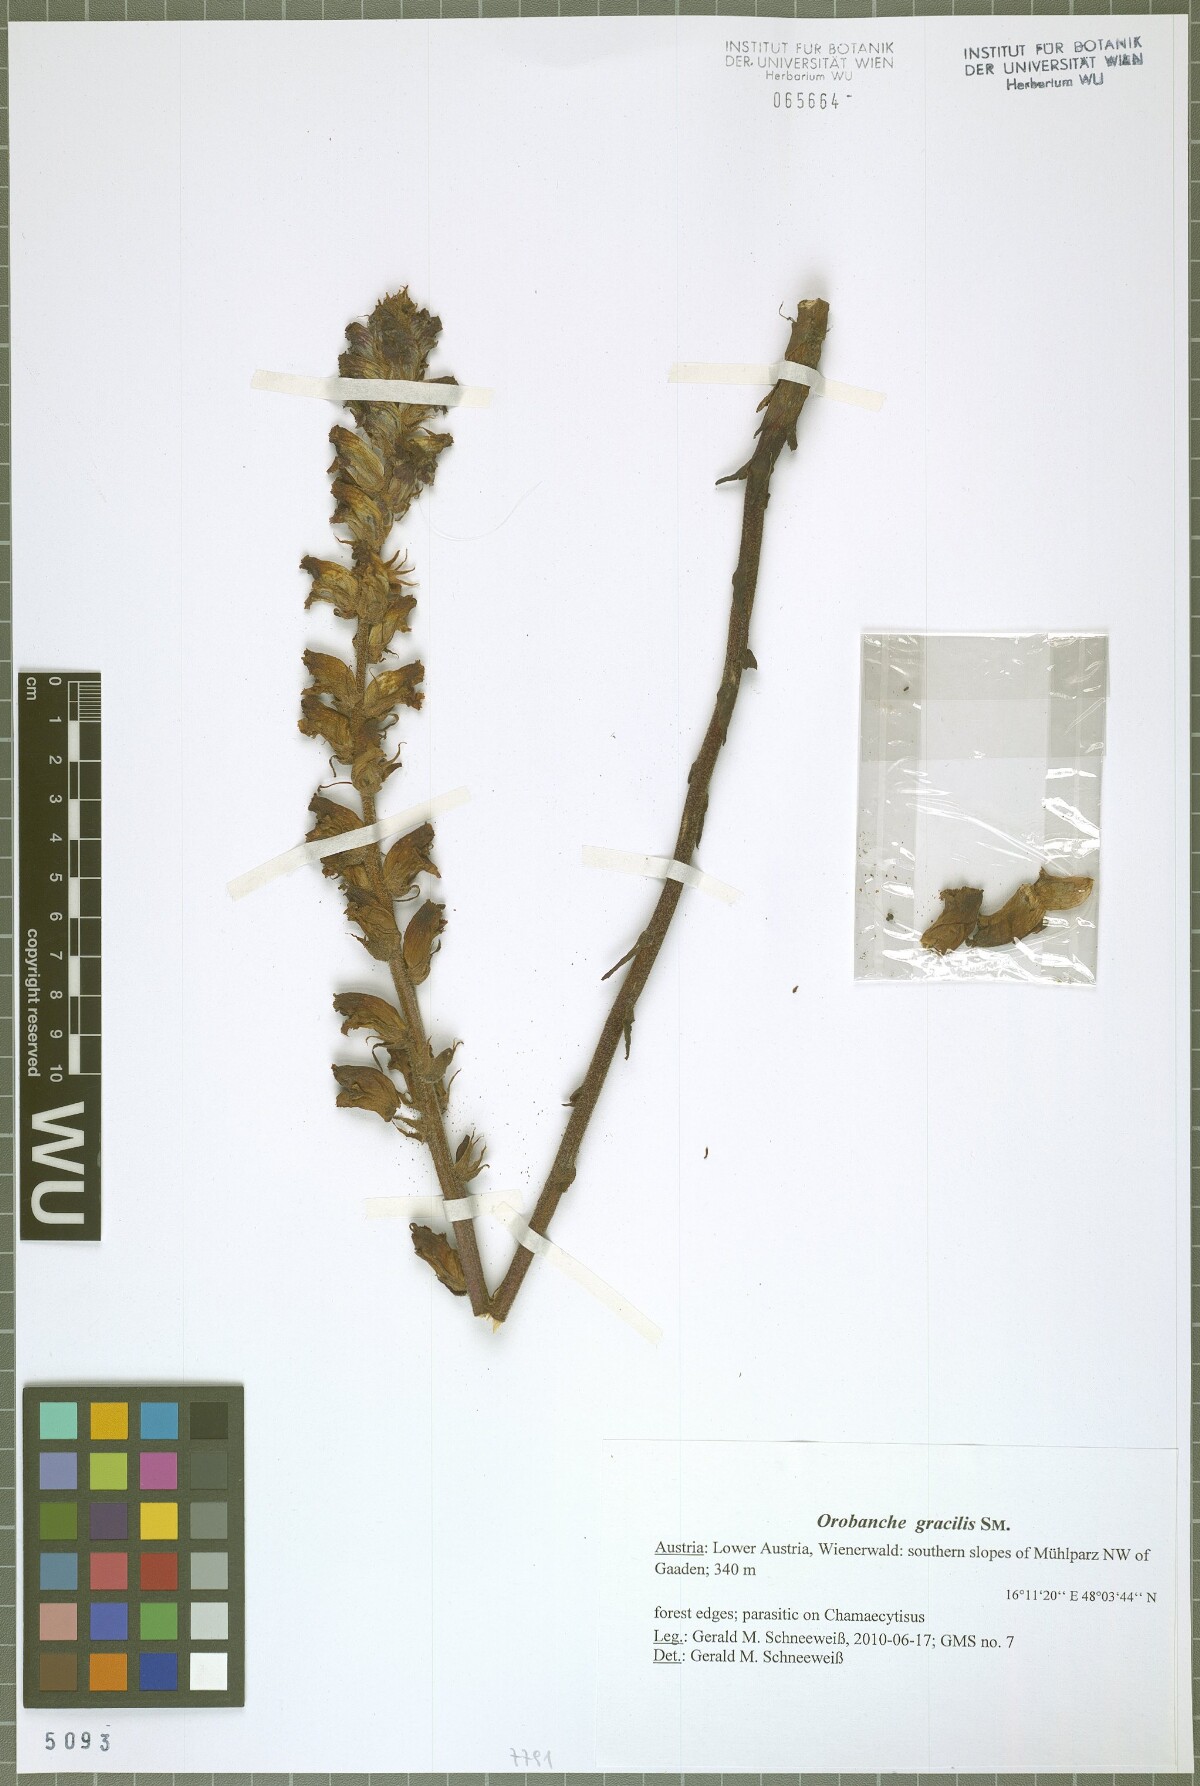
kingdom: Plantae
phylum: Tracheophyta
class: Magnoliopsida
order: Lamiales
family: Orobanchaceae
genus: Orobanche
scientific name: Orobanche gracilis
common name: Slender broomrape
